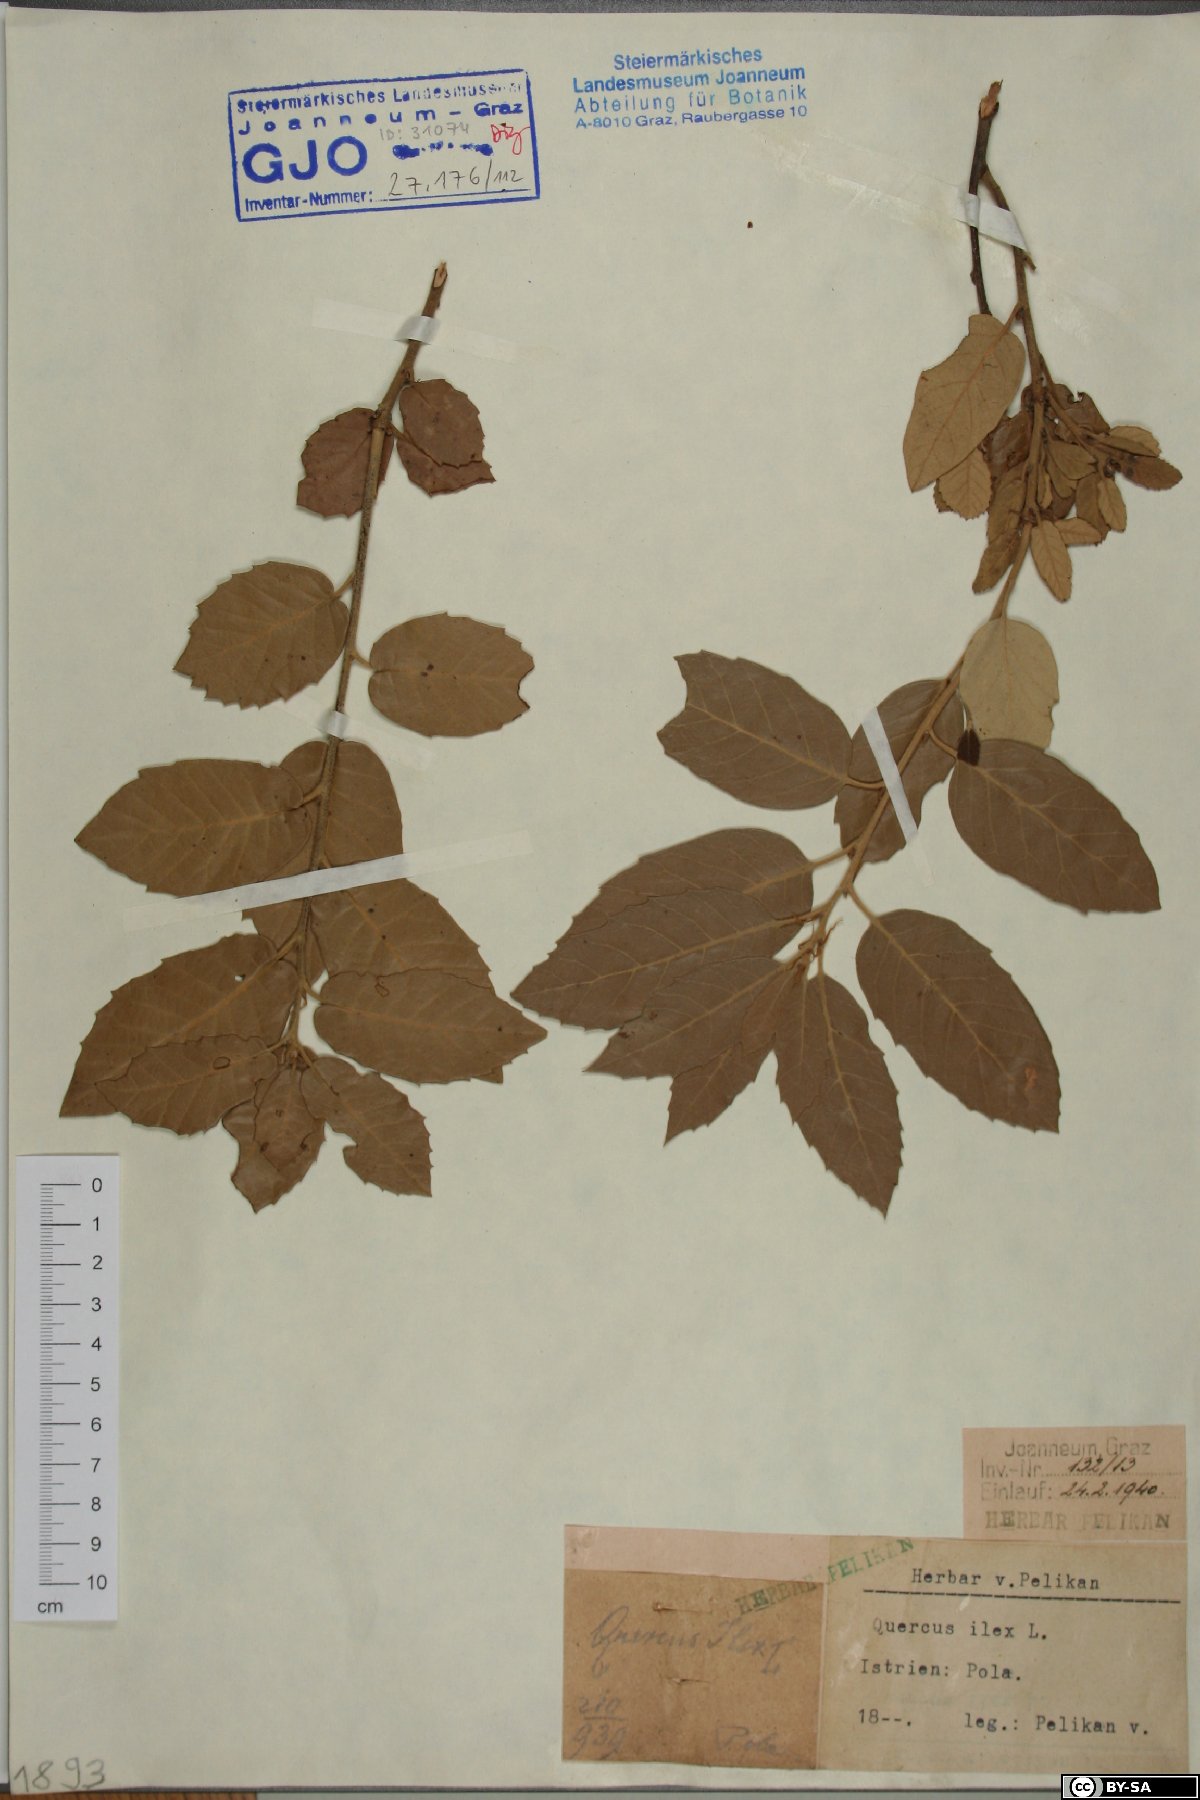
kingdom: Plantae
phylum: Tracheophyta
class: Magnoliopsida
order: Fagales
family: Fagaceae
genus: Quercus
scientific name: Quercus ilex
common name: Evergreen oak
